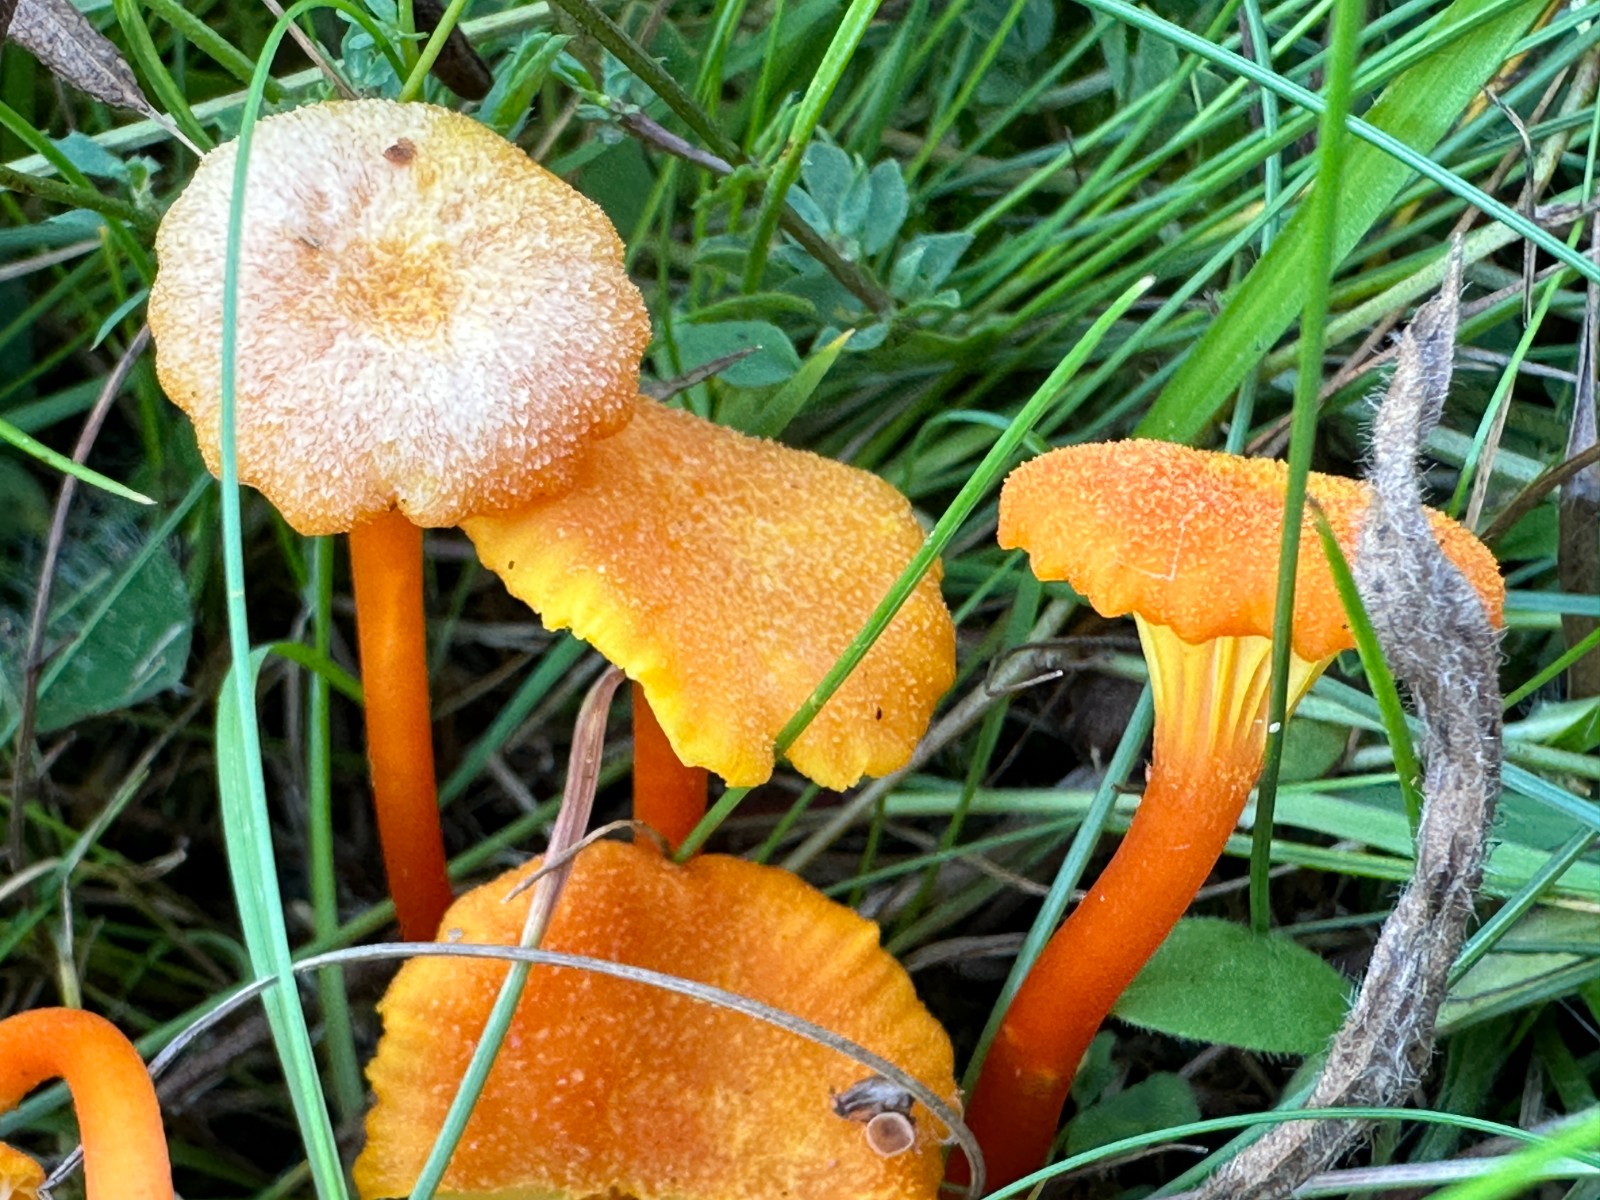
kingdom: Fungi
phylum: Basidiomycota
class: Agaricomycetes
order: Agaricales
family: Hygrophoraceae
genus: Hygrocybe
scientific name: Hygrocybe cantharellus
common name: kantarel-vokshat
